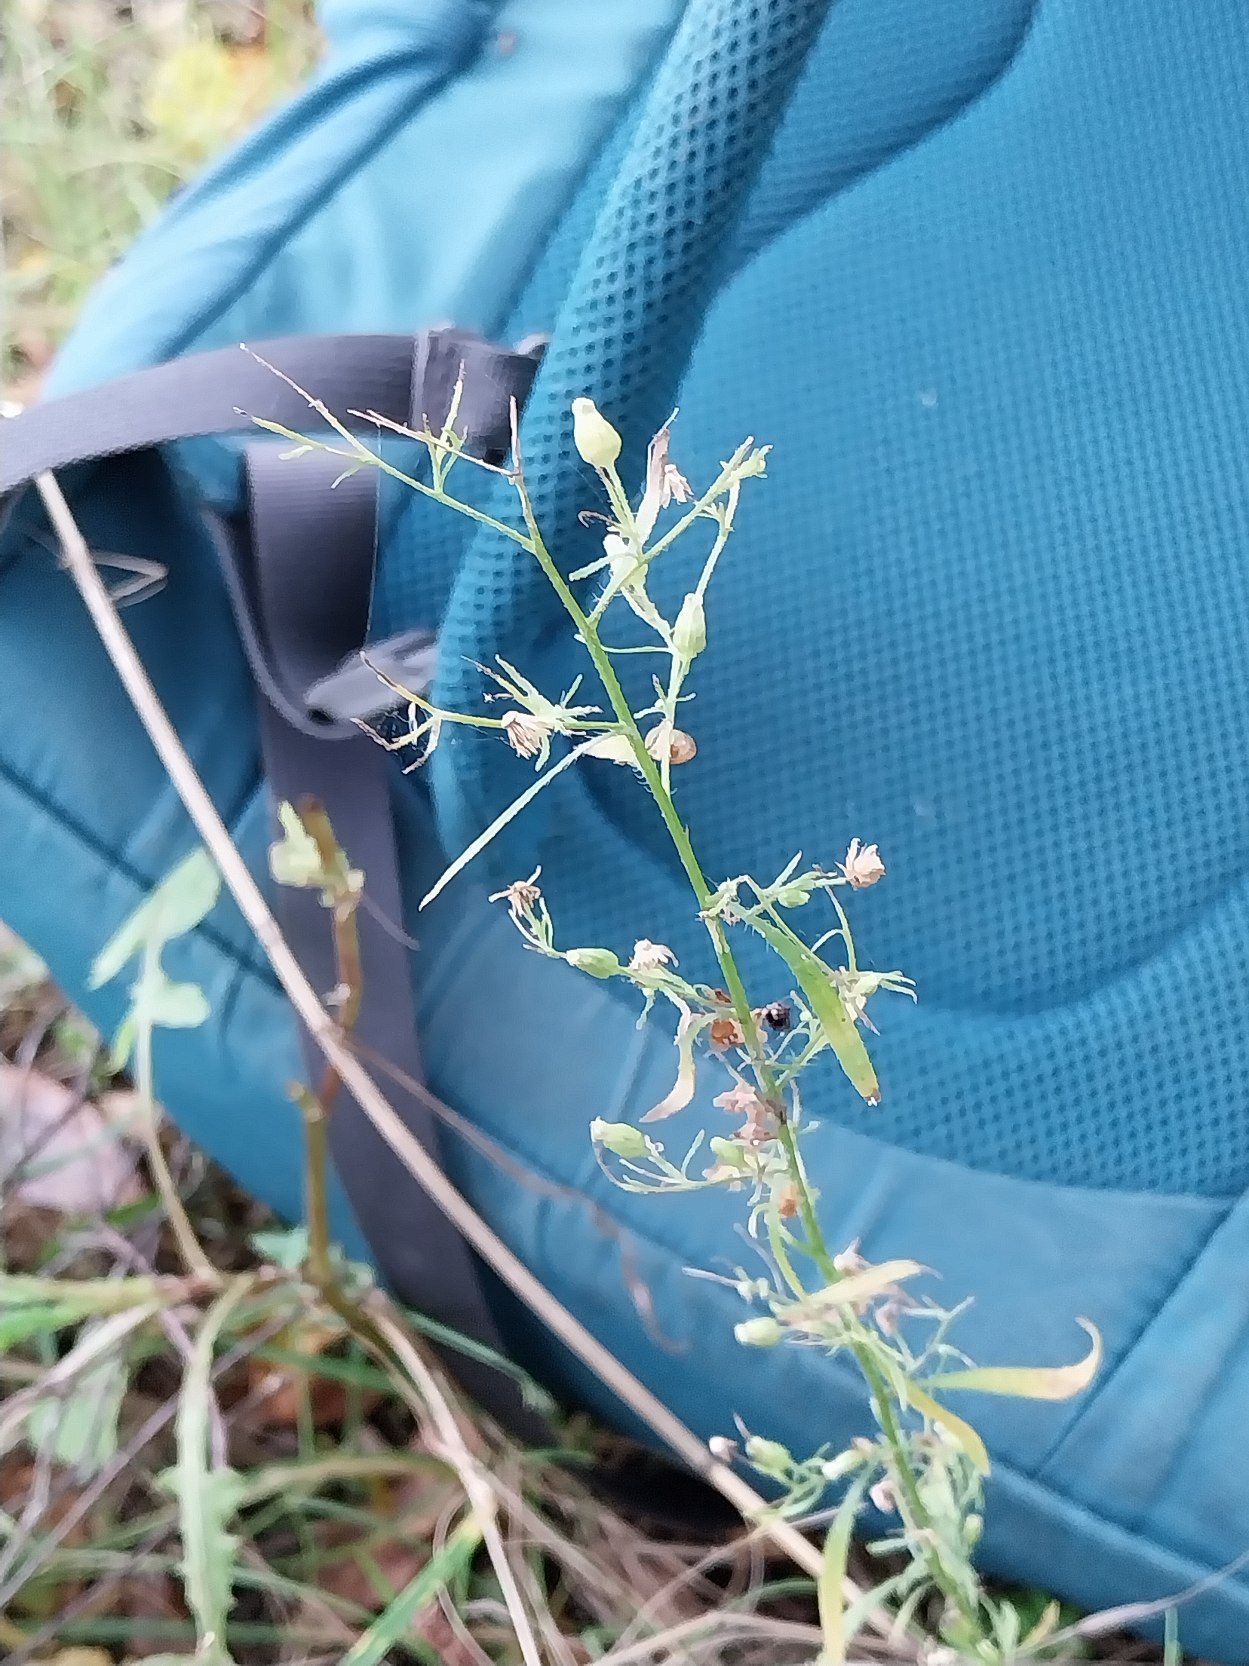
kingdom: Plantae
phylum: Tracheophyta
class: Magnoliopsida
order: Asterales
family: Asteraceae
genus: Erigeron
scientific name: Erigeron canadensis
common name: Kanadisk bakkestjerne
